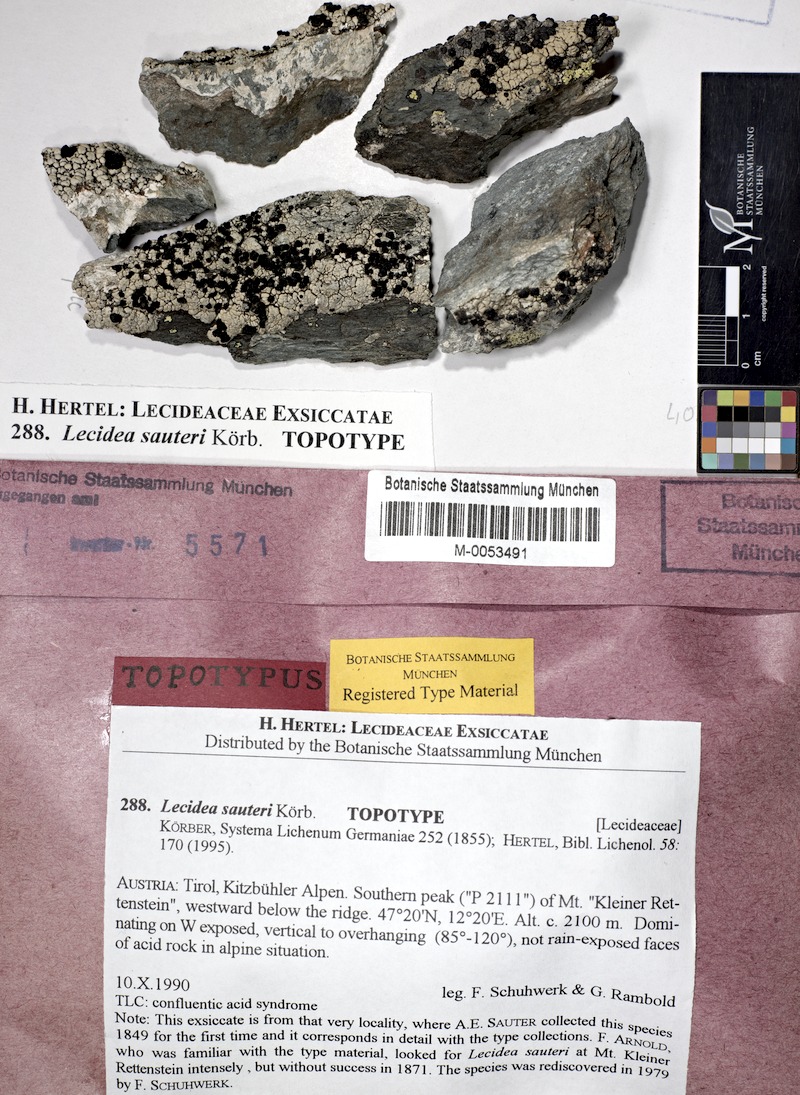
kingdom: Fungi
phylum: Ascomycota
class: Lecanoromycetes
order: Lecideales
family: Lecideaceae
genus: Lecidea
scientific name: Lecidea sauteri
